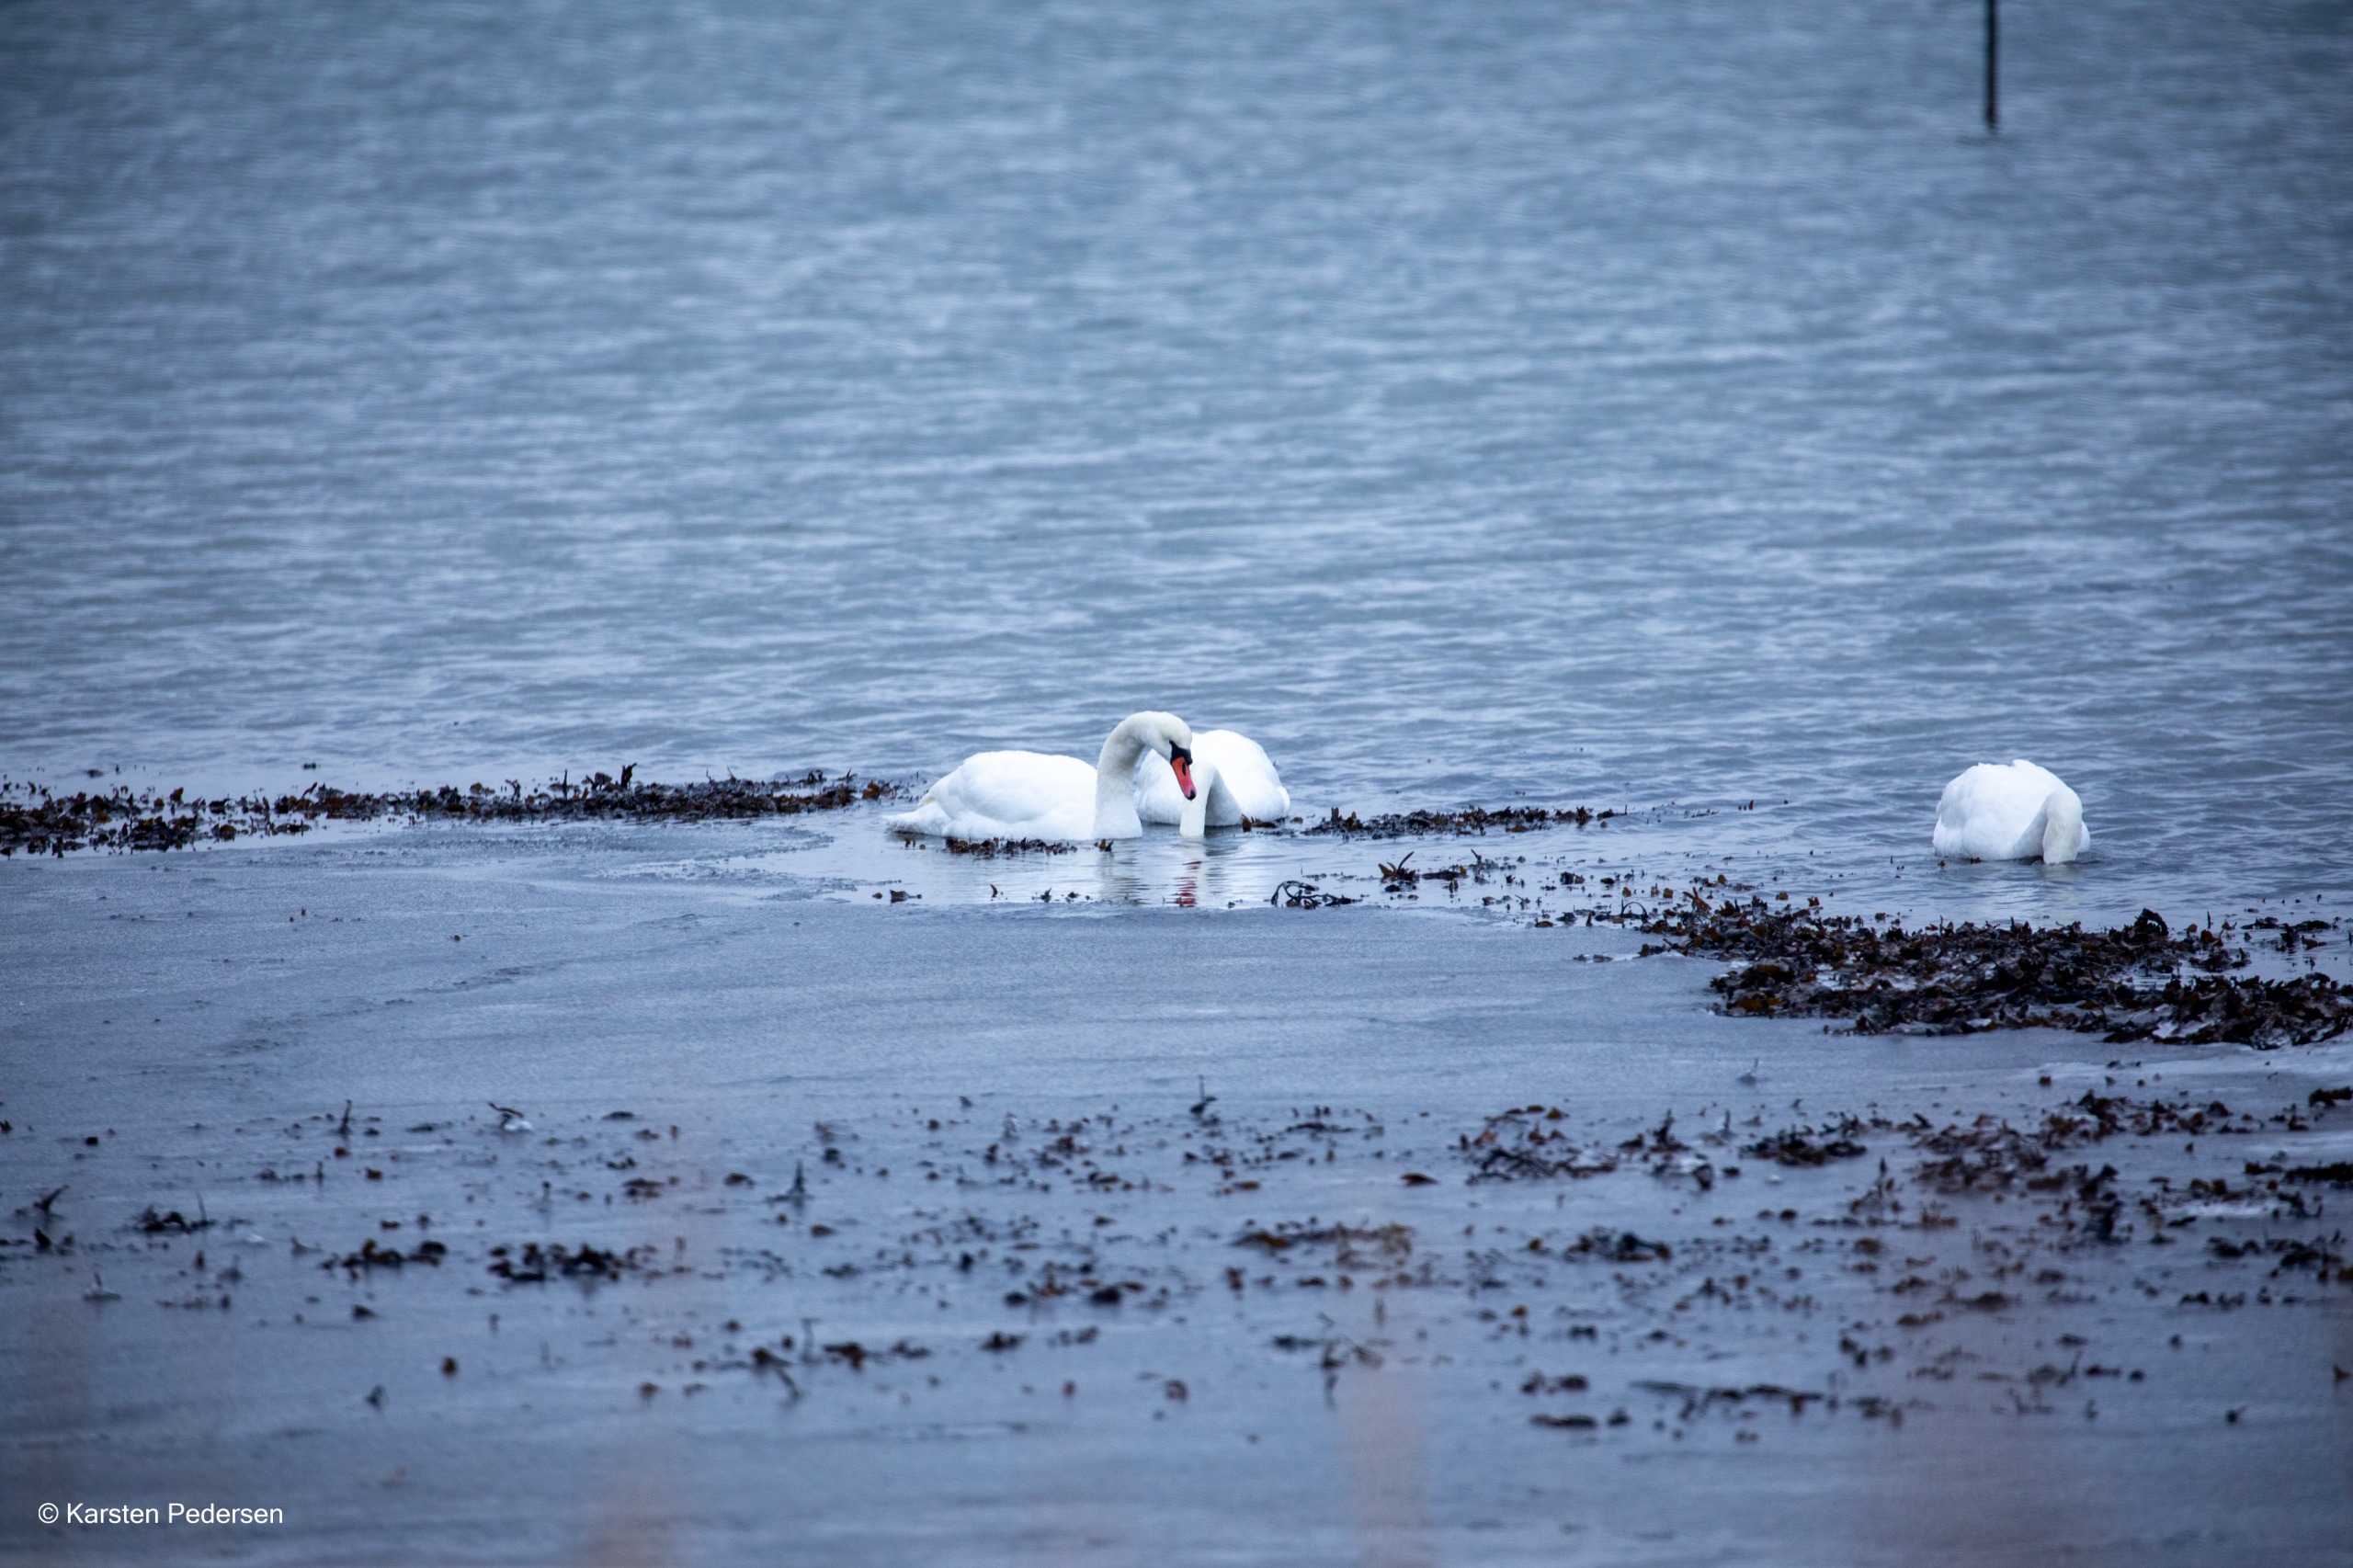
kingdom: Animalia
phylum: Chordata
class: Aves
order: Anseriformes
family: Anatidae
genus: Cygnus
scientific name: Cygnus olor
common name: Knopsvane
